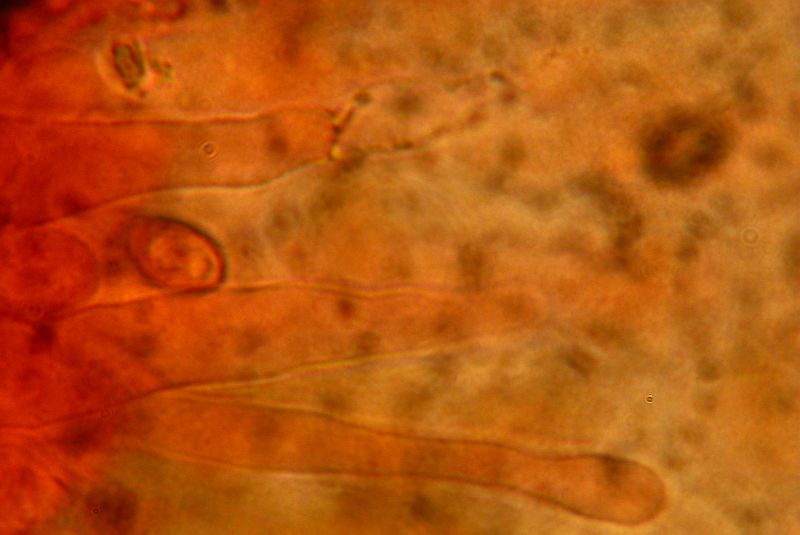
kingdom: Fungi
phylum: Basidiomycota
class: Agaricomycetes
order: Agaricales
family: Hymenogastraceae
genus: Galerina
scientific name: Galerina esteve-raventosii
